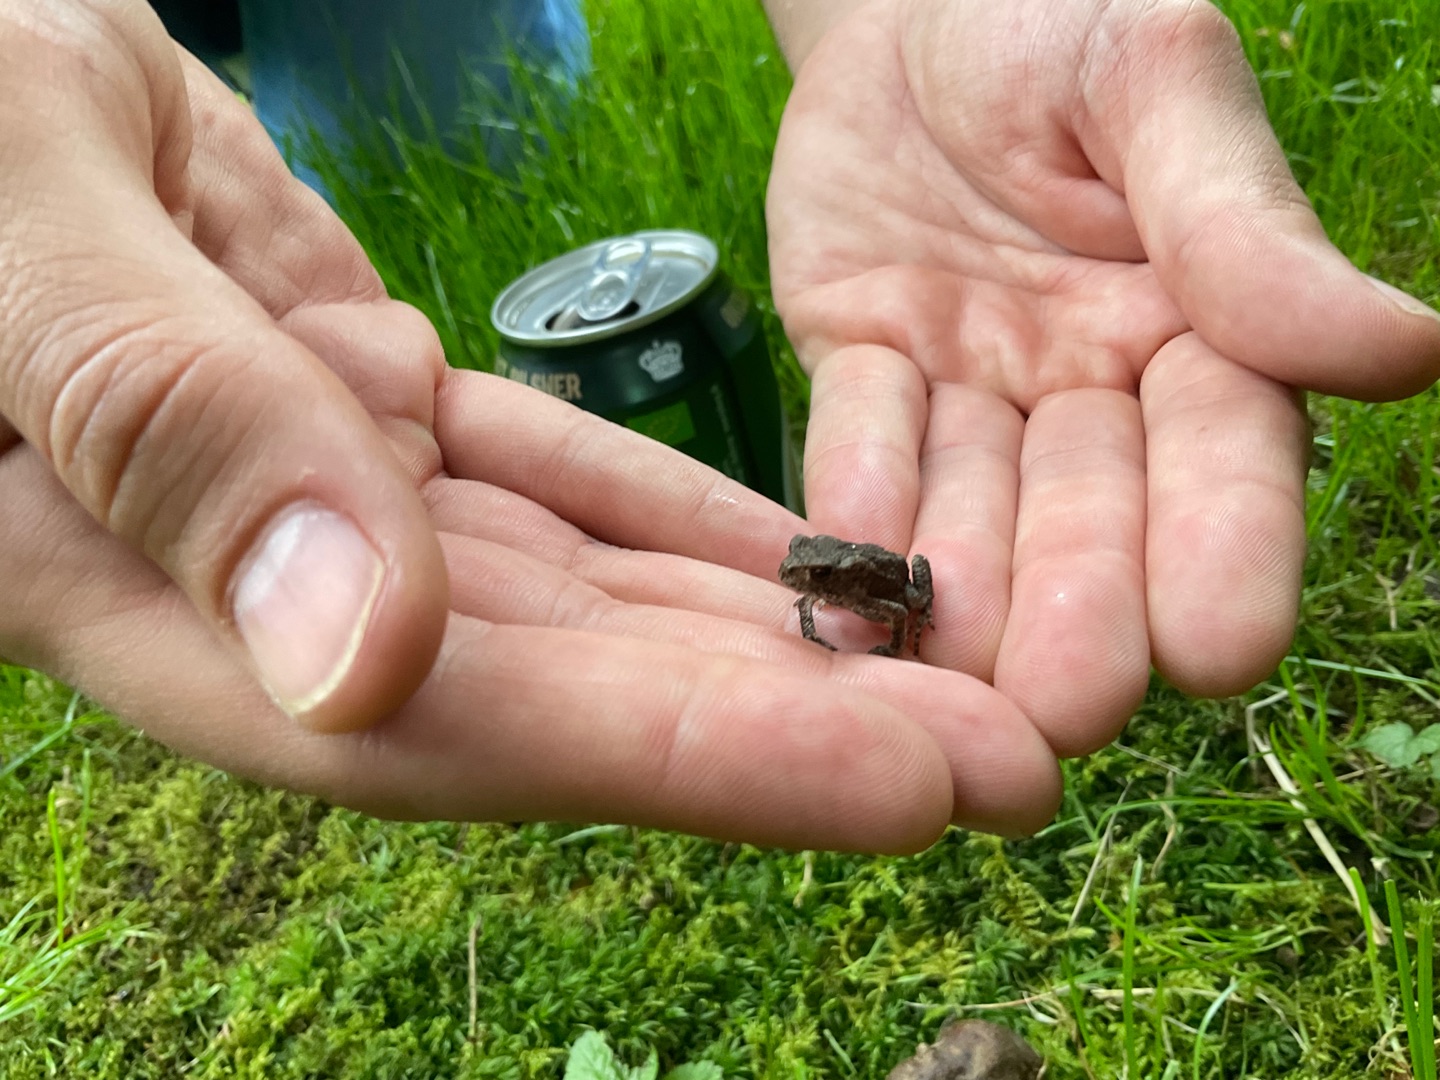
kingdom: Animalia
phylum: Chordata
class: Amphibia
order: Anura
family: Bufonidae
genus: Bufo
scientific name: Bufo bufo
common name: Skrubtudse
